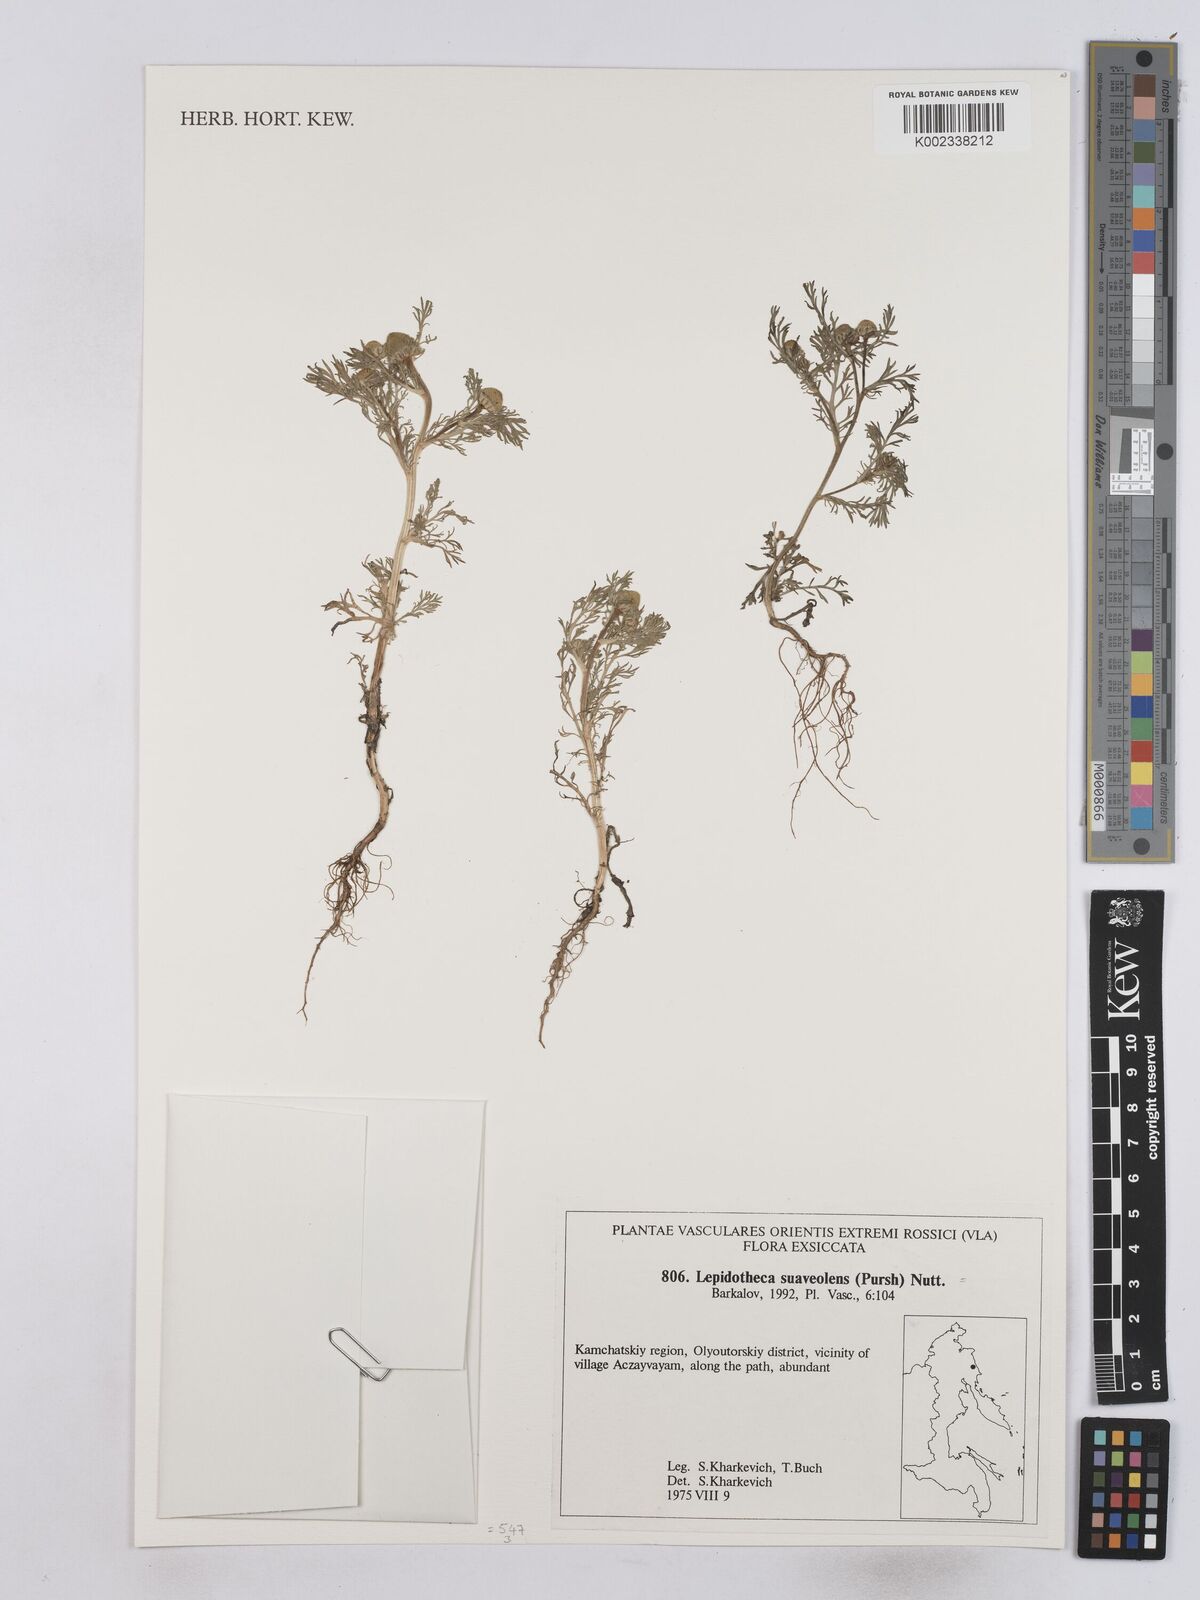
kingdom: Plantae
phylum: Tracheophyta
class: Magnoliopsida
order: Asterales
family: Asteraceae
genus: Matricaria
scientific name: Matricaria discoidea
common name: Disc mayweed
